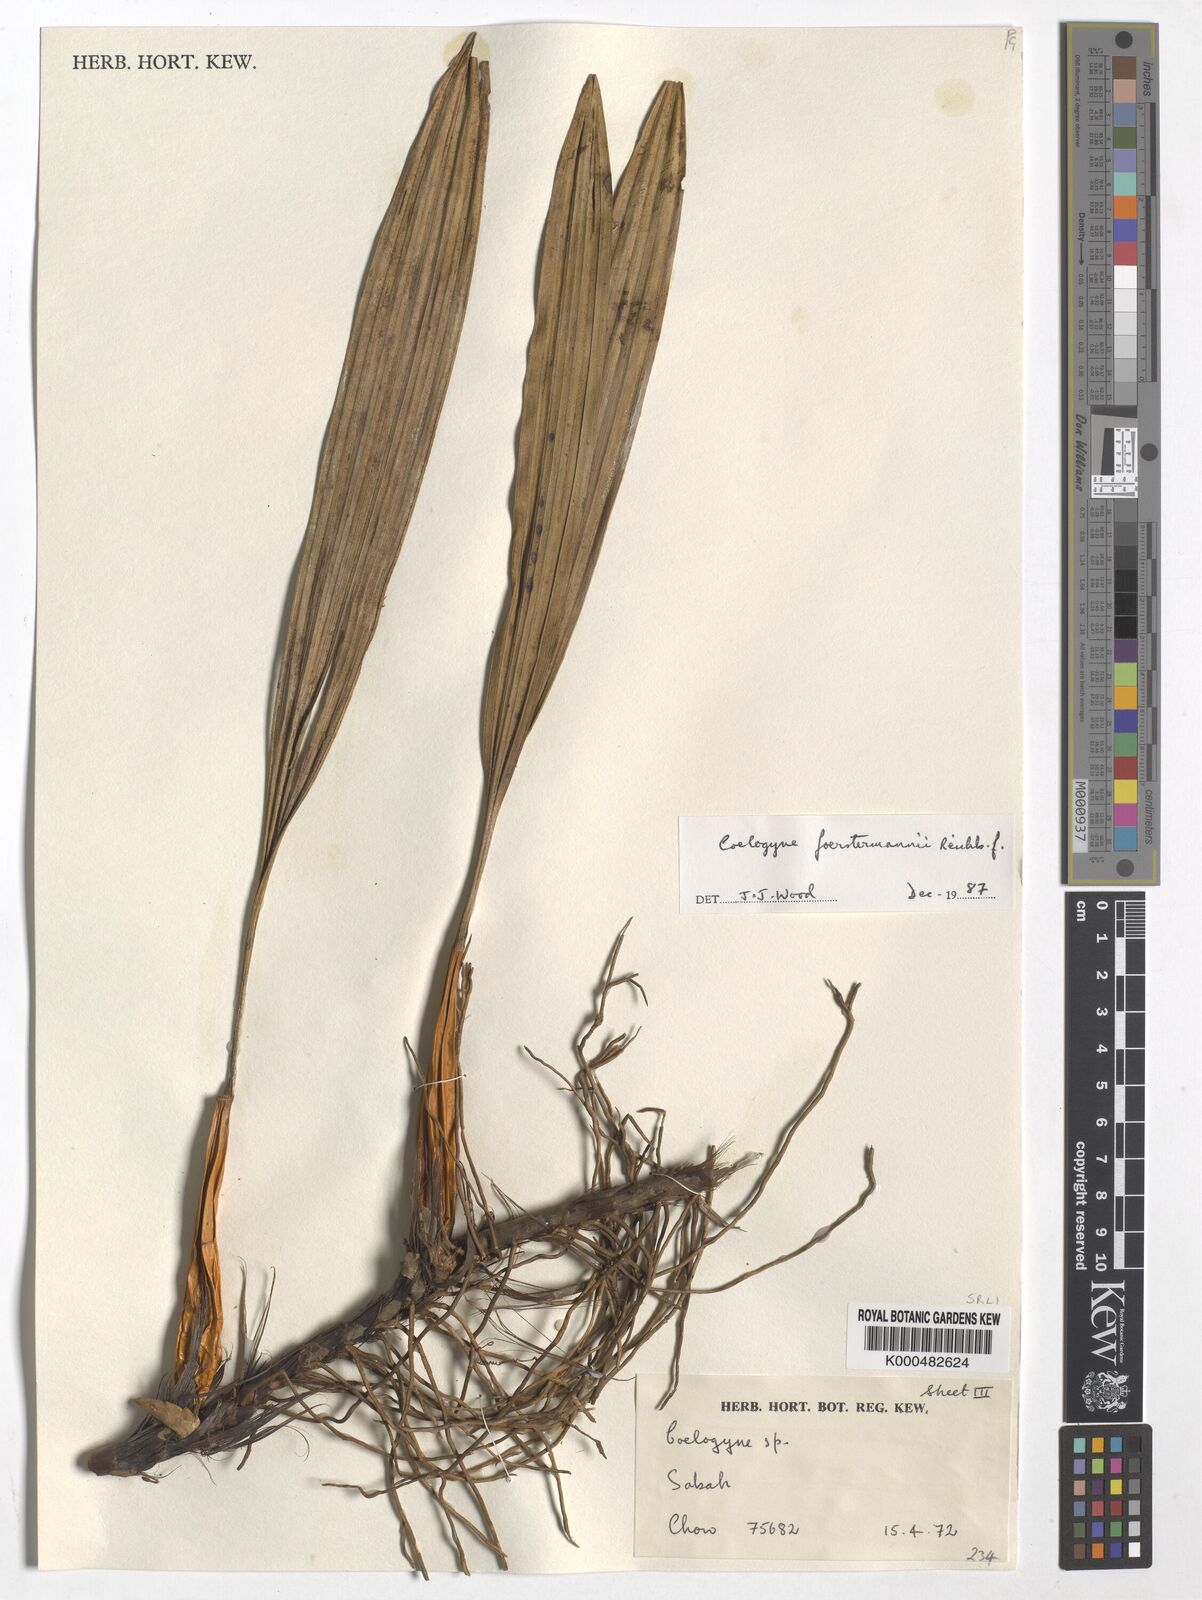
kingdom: Plantae
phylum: Tracheophyta
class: Liliopsida
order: Asparagales
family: Orchidaceae
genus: Coelogyne
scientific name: Coelogyne
